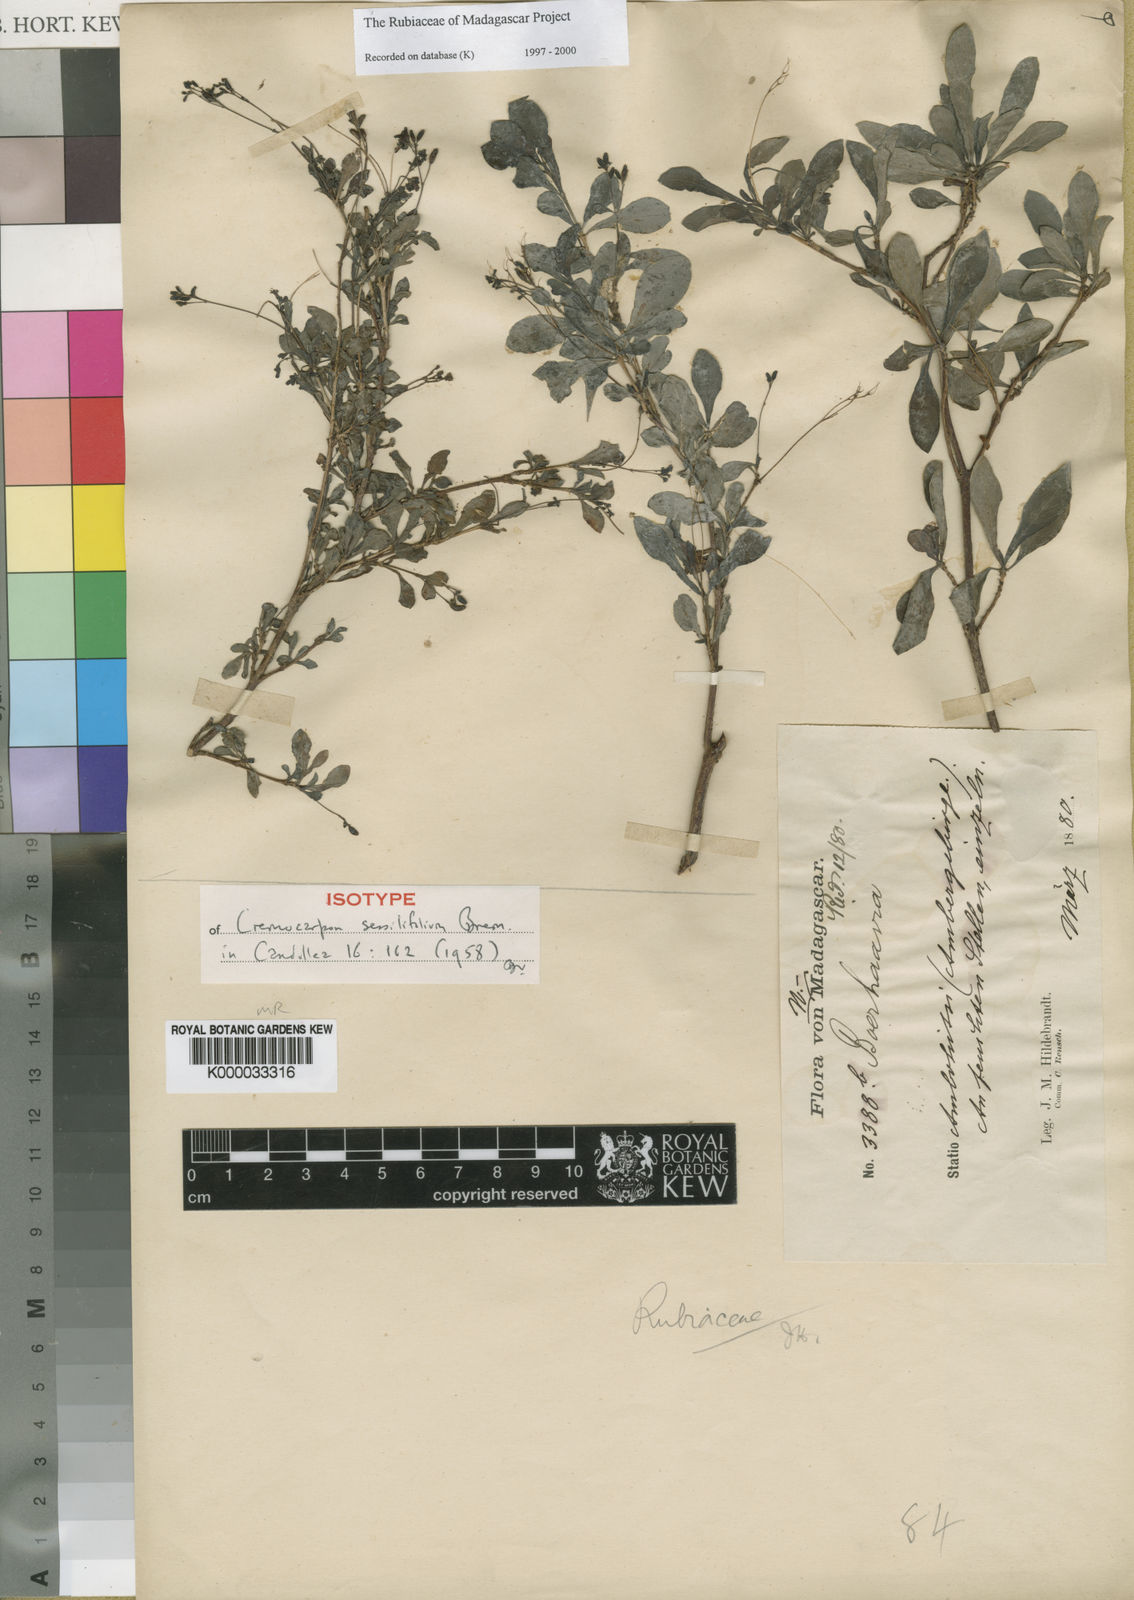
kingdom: Plantae
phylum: Tracheophyta
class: Magnoliopsida
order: Gentianales
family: Rubiaceae
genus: Psychotria
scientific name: Psychotria schatzii
